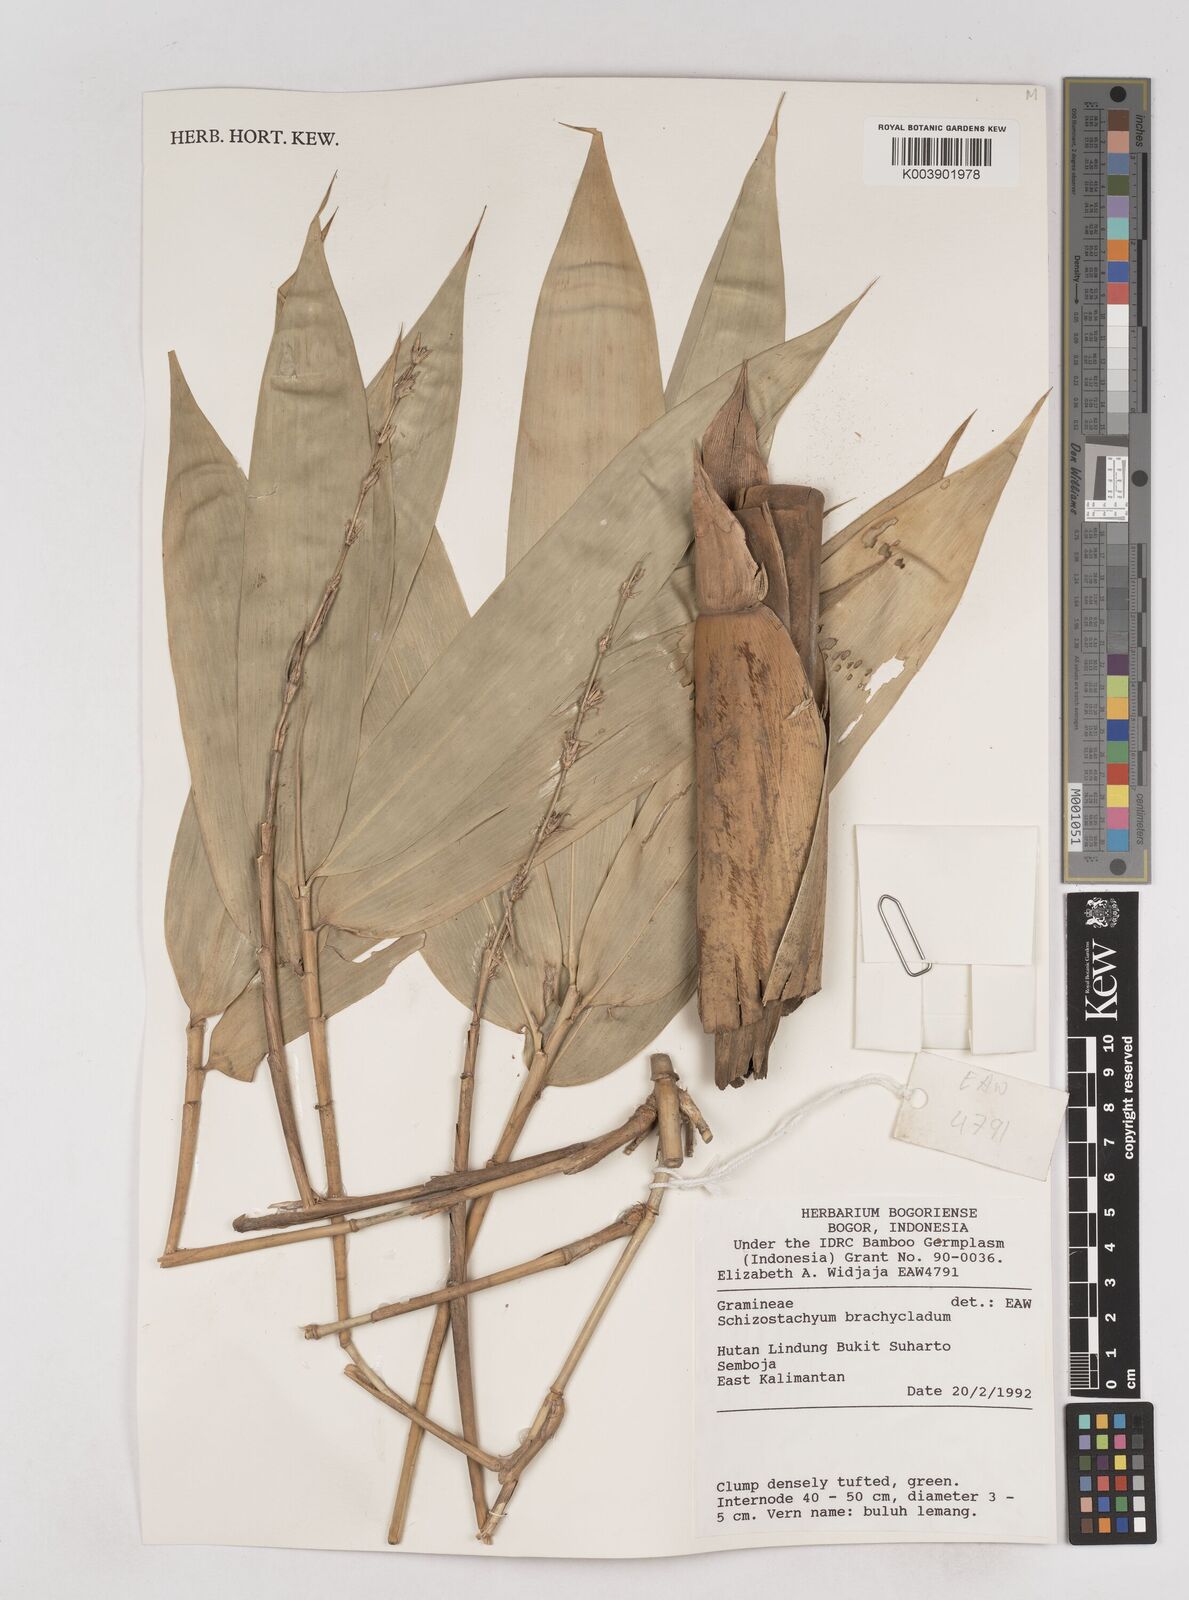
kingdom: Plantae
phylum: Tracheophyta
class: Liliopsida
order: Poales
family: Poaceae
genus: Schizostachyum
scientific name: Schizostachyum brachycladum
